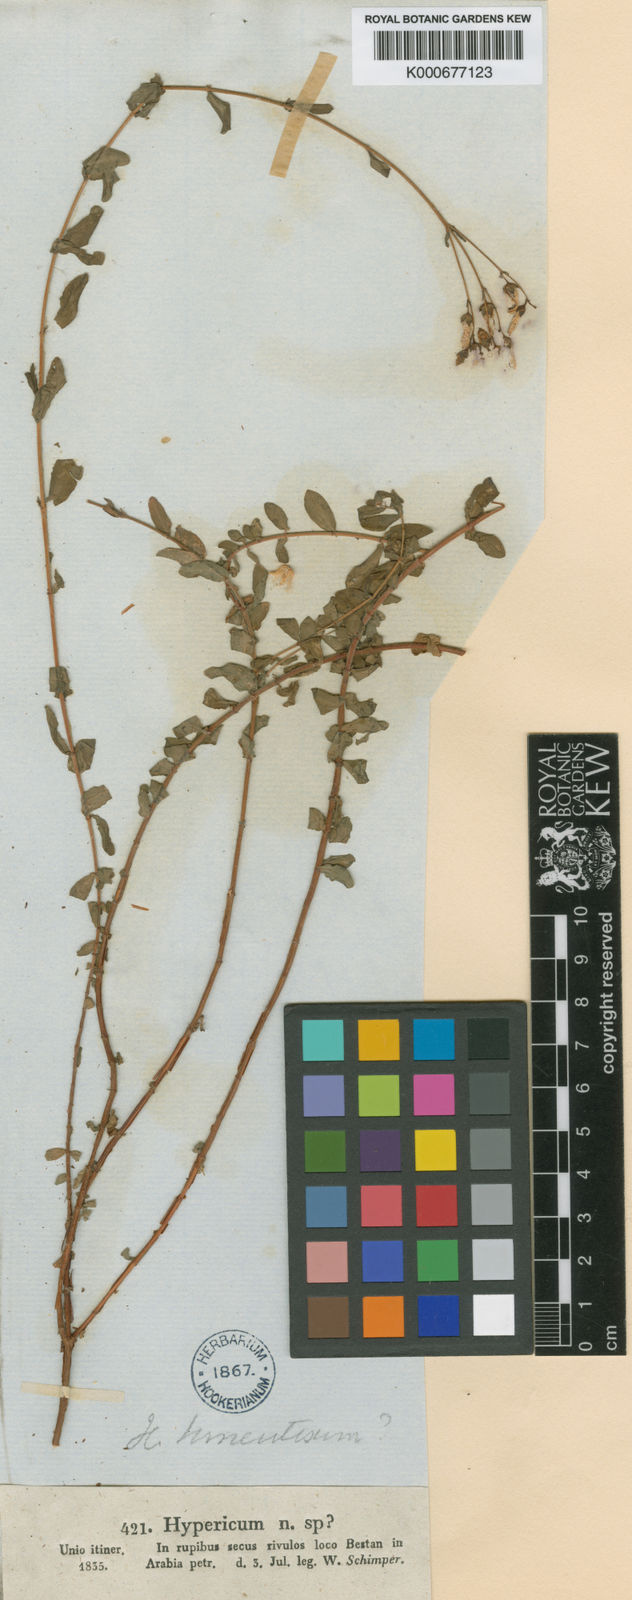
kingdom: Plantae
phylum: Tracheophyta
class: Magnoliopsida
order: Malpighiales
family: Hypericaceae
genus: Hypericum
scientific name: Hypericum sinaicum
